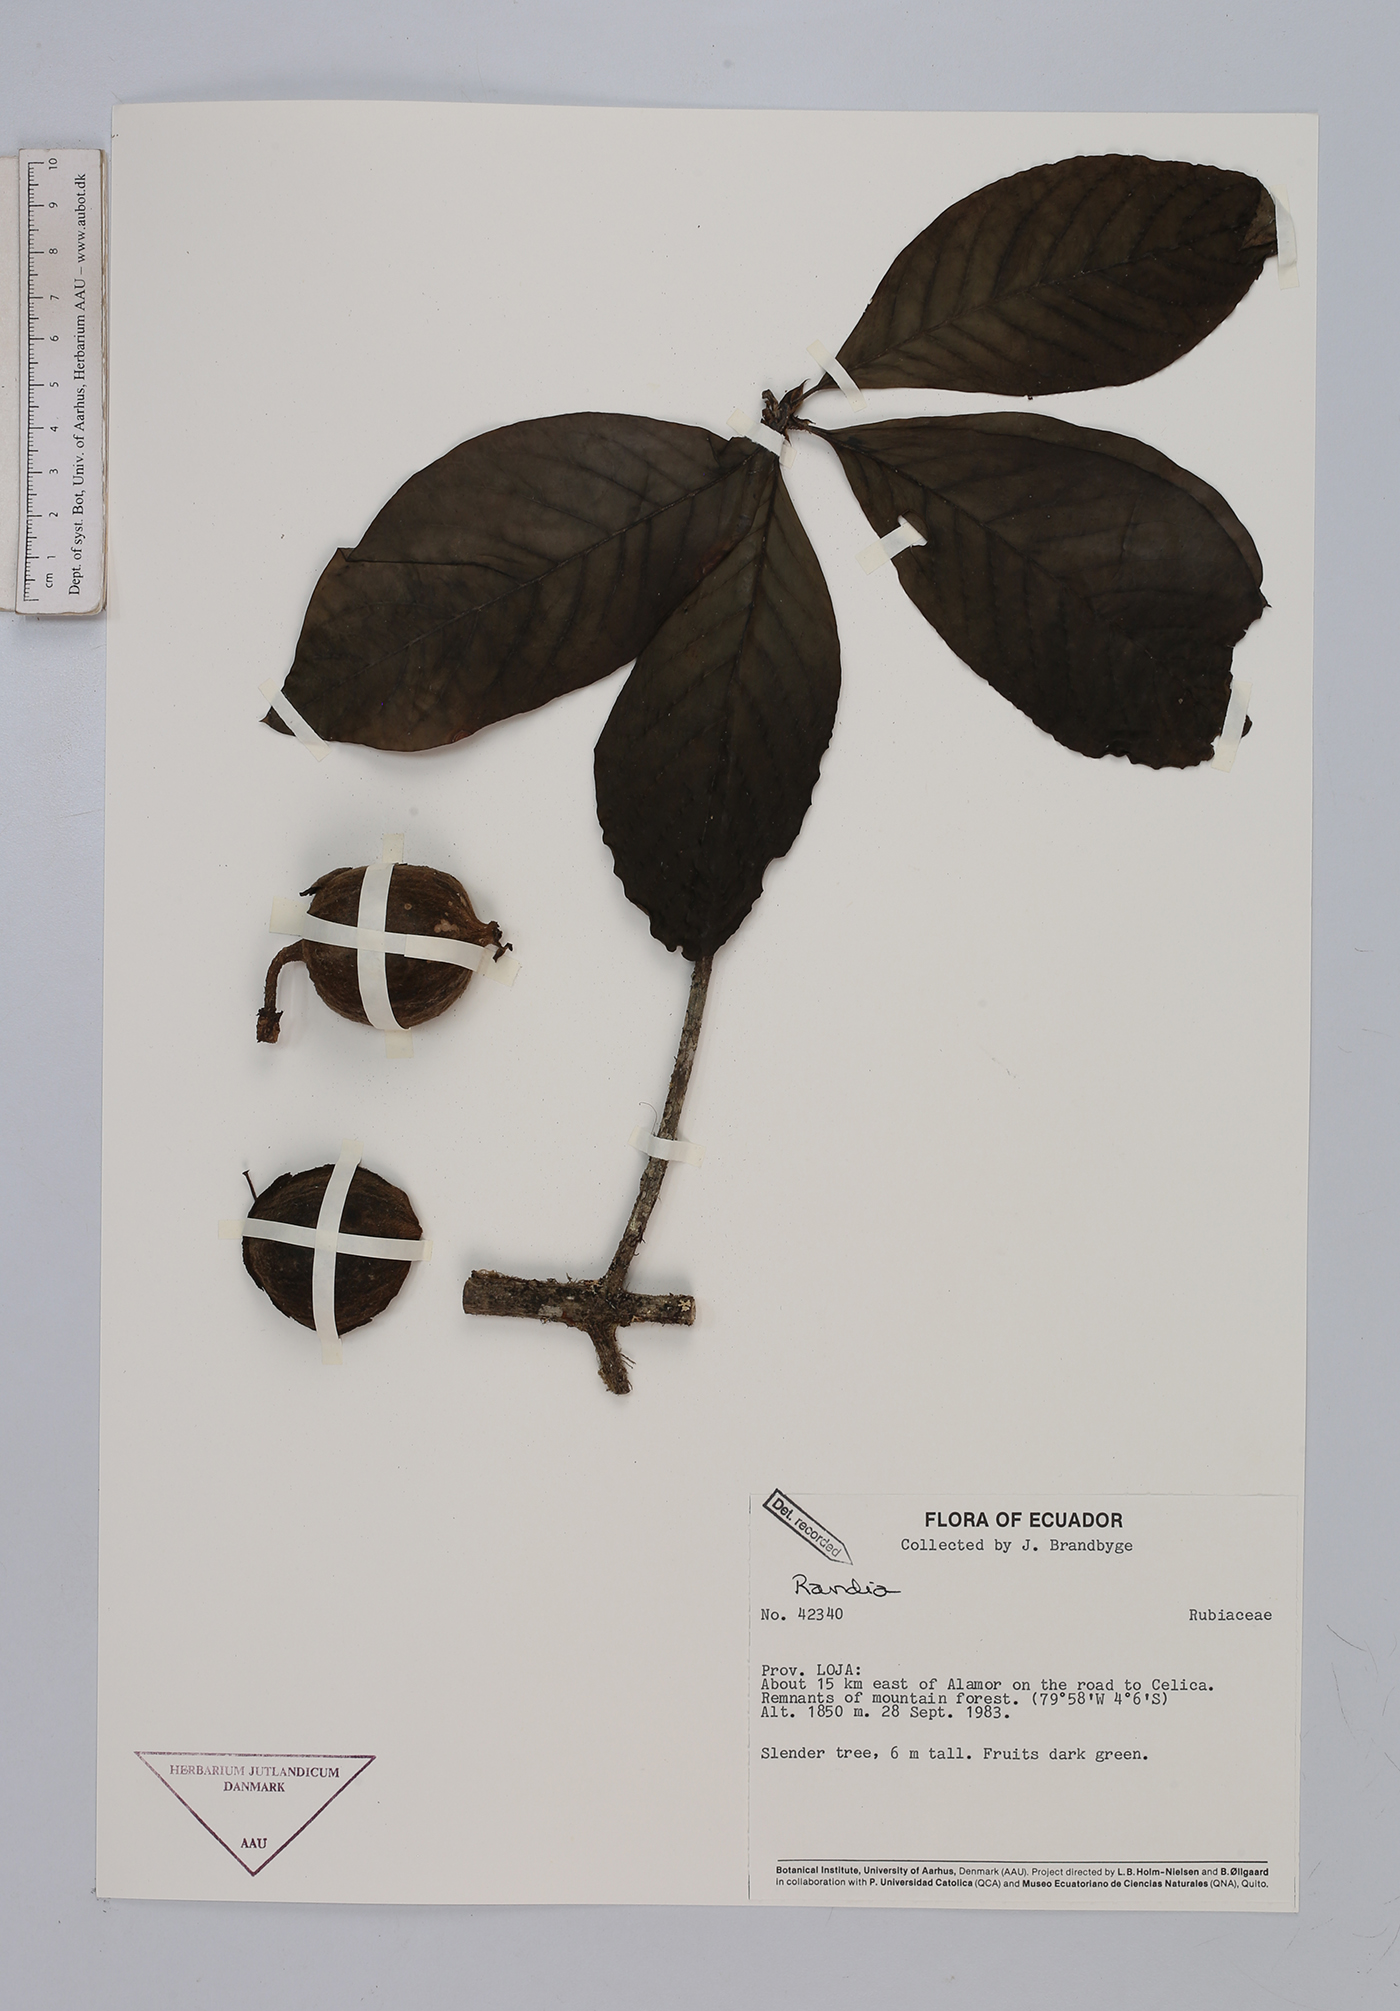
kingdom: Plantae
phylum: Tracheophyta
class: Magnoliopsida
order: Gentianales
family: Rubiaceae
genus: Randia
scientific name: Randia
